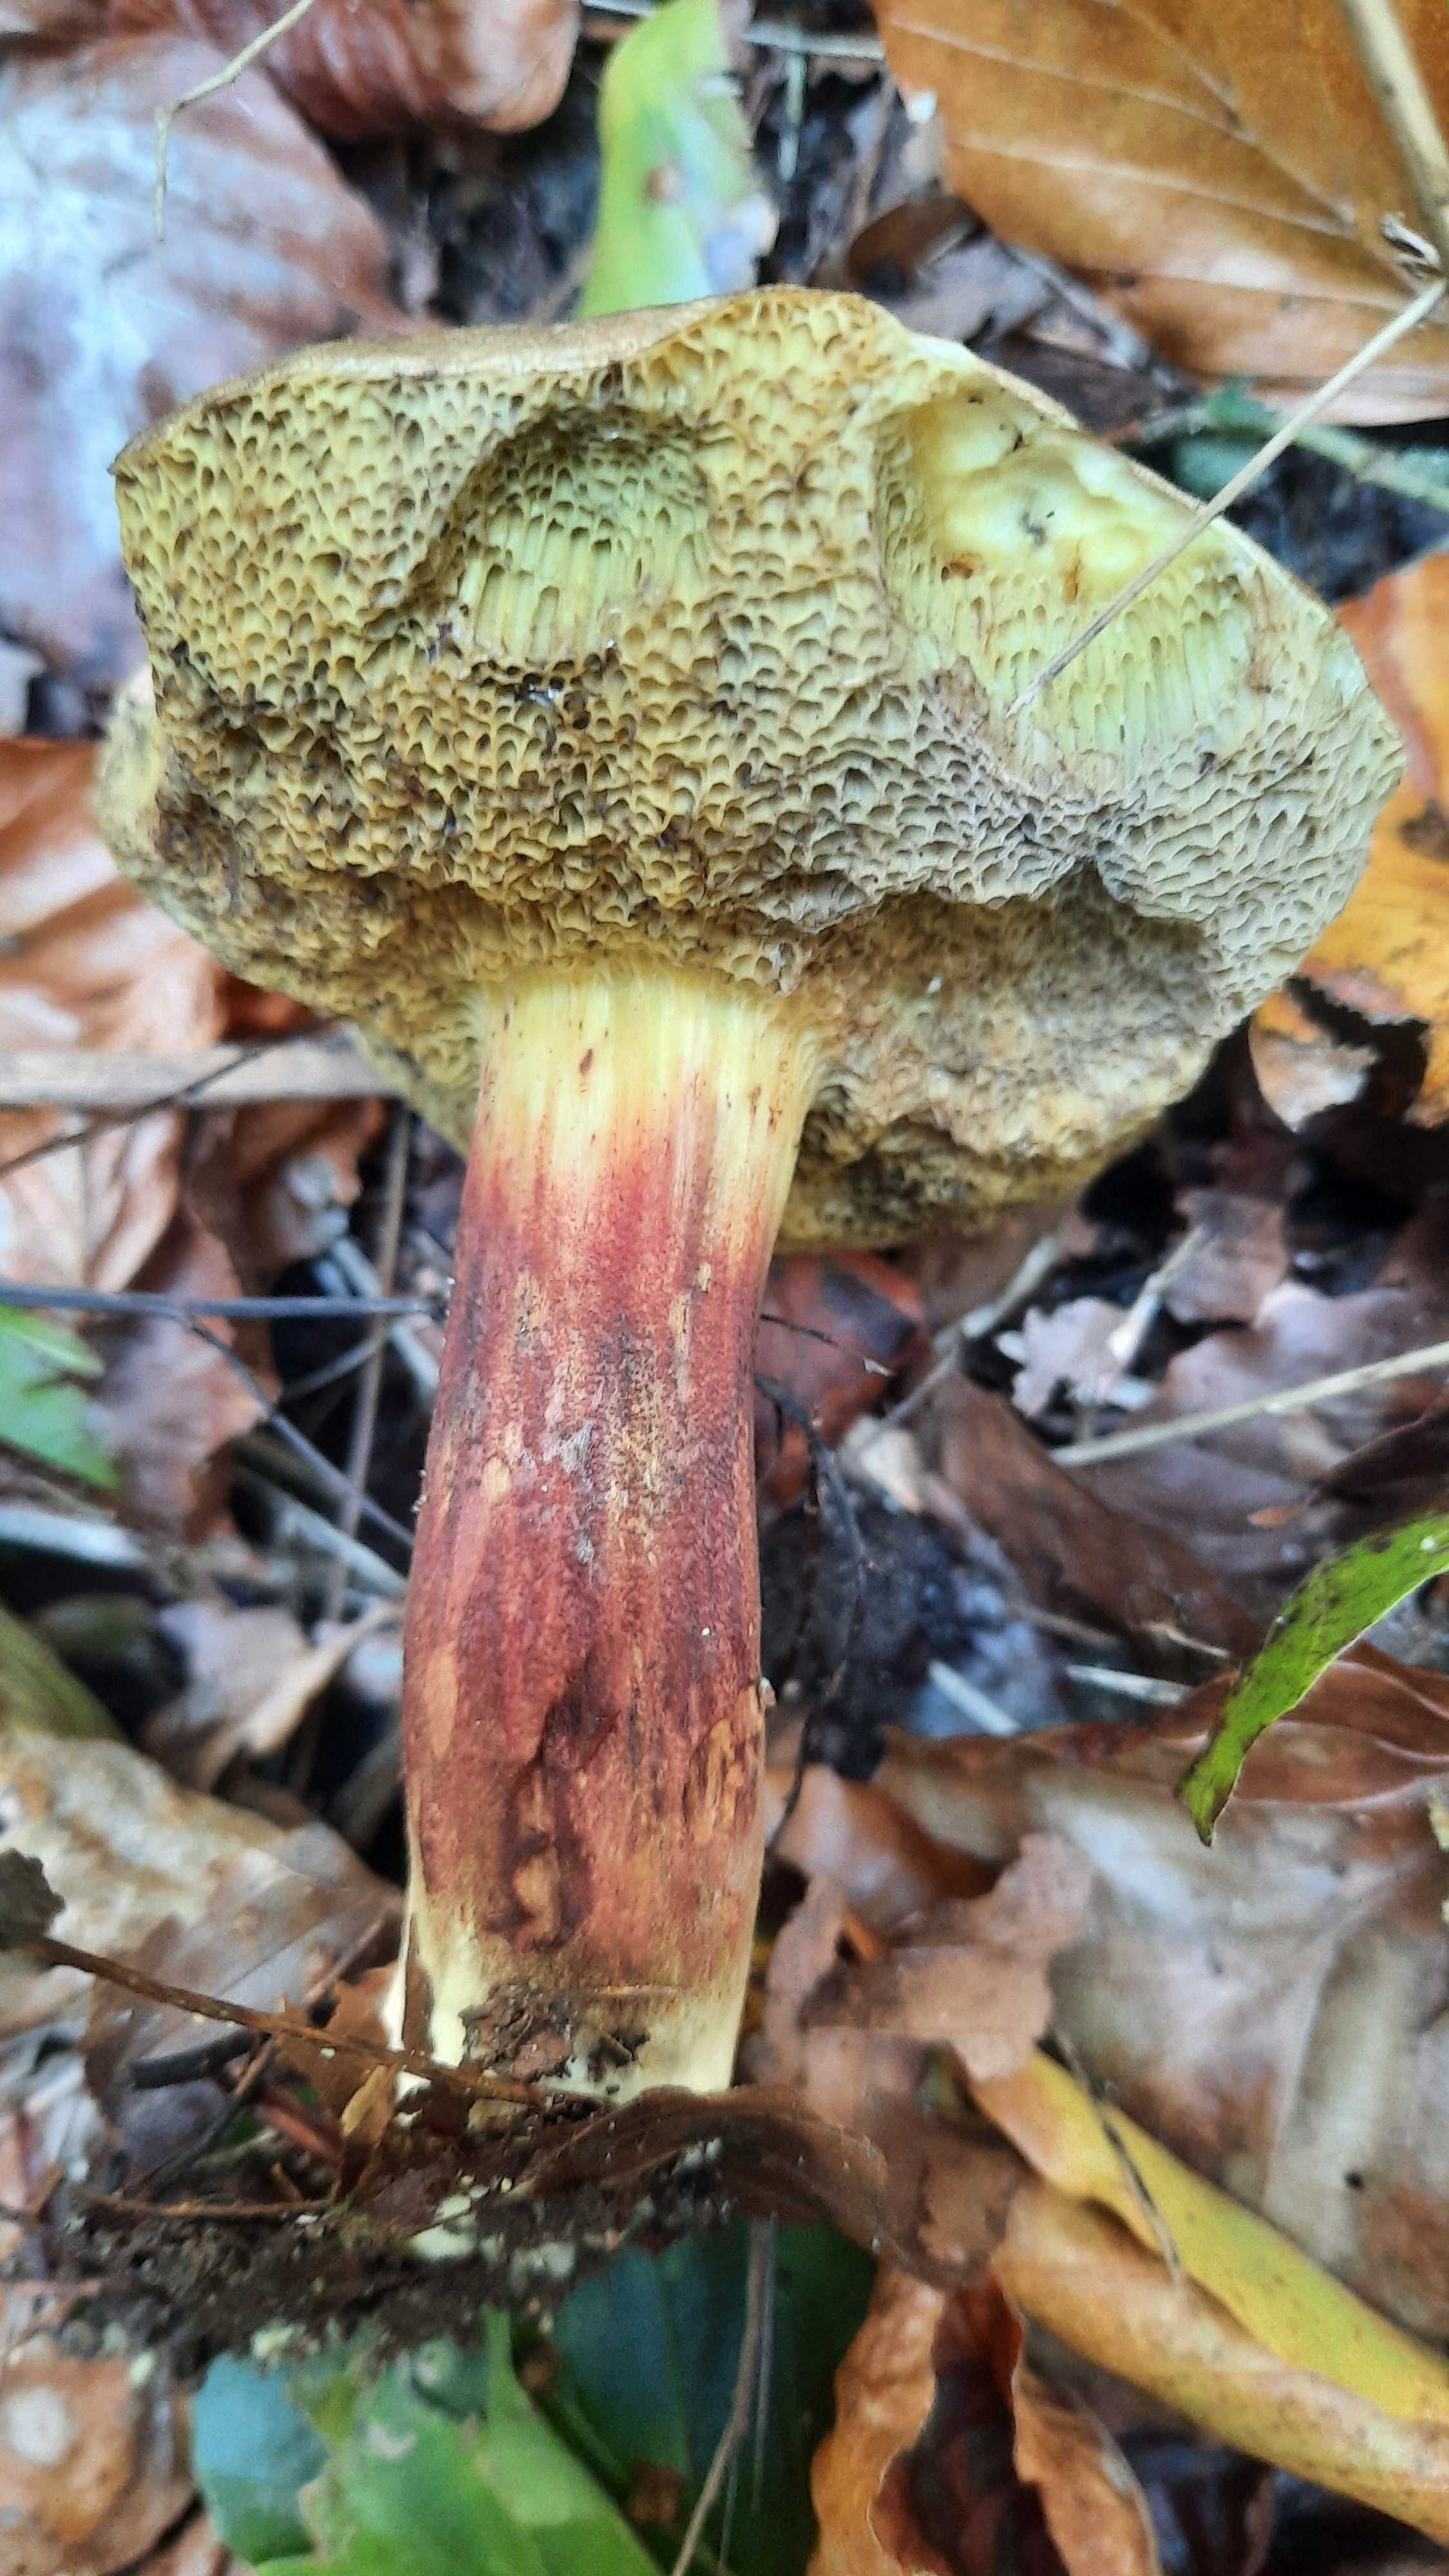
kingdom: Fungi
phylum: Basidiomycota
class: Agaricomycetes
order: Boletales
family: Boletaceae
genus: Xerocomellus
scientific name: Xerocomellus chrysenteron
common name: rødsprukken rørhat
